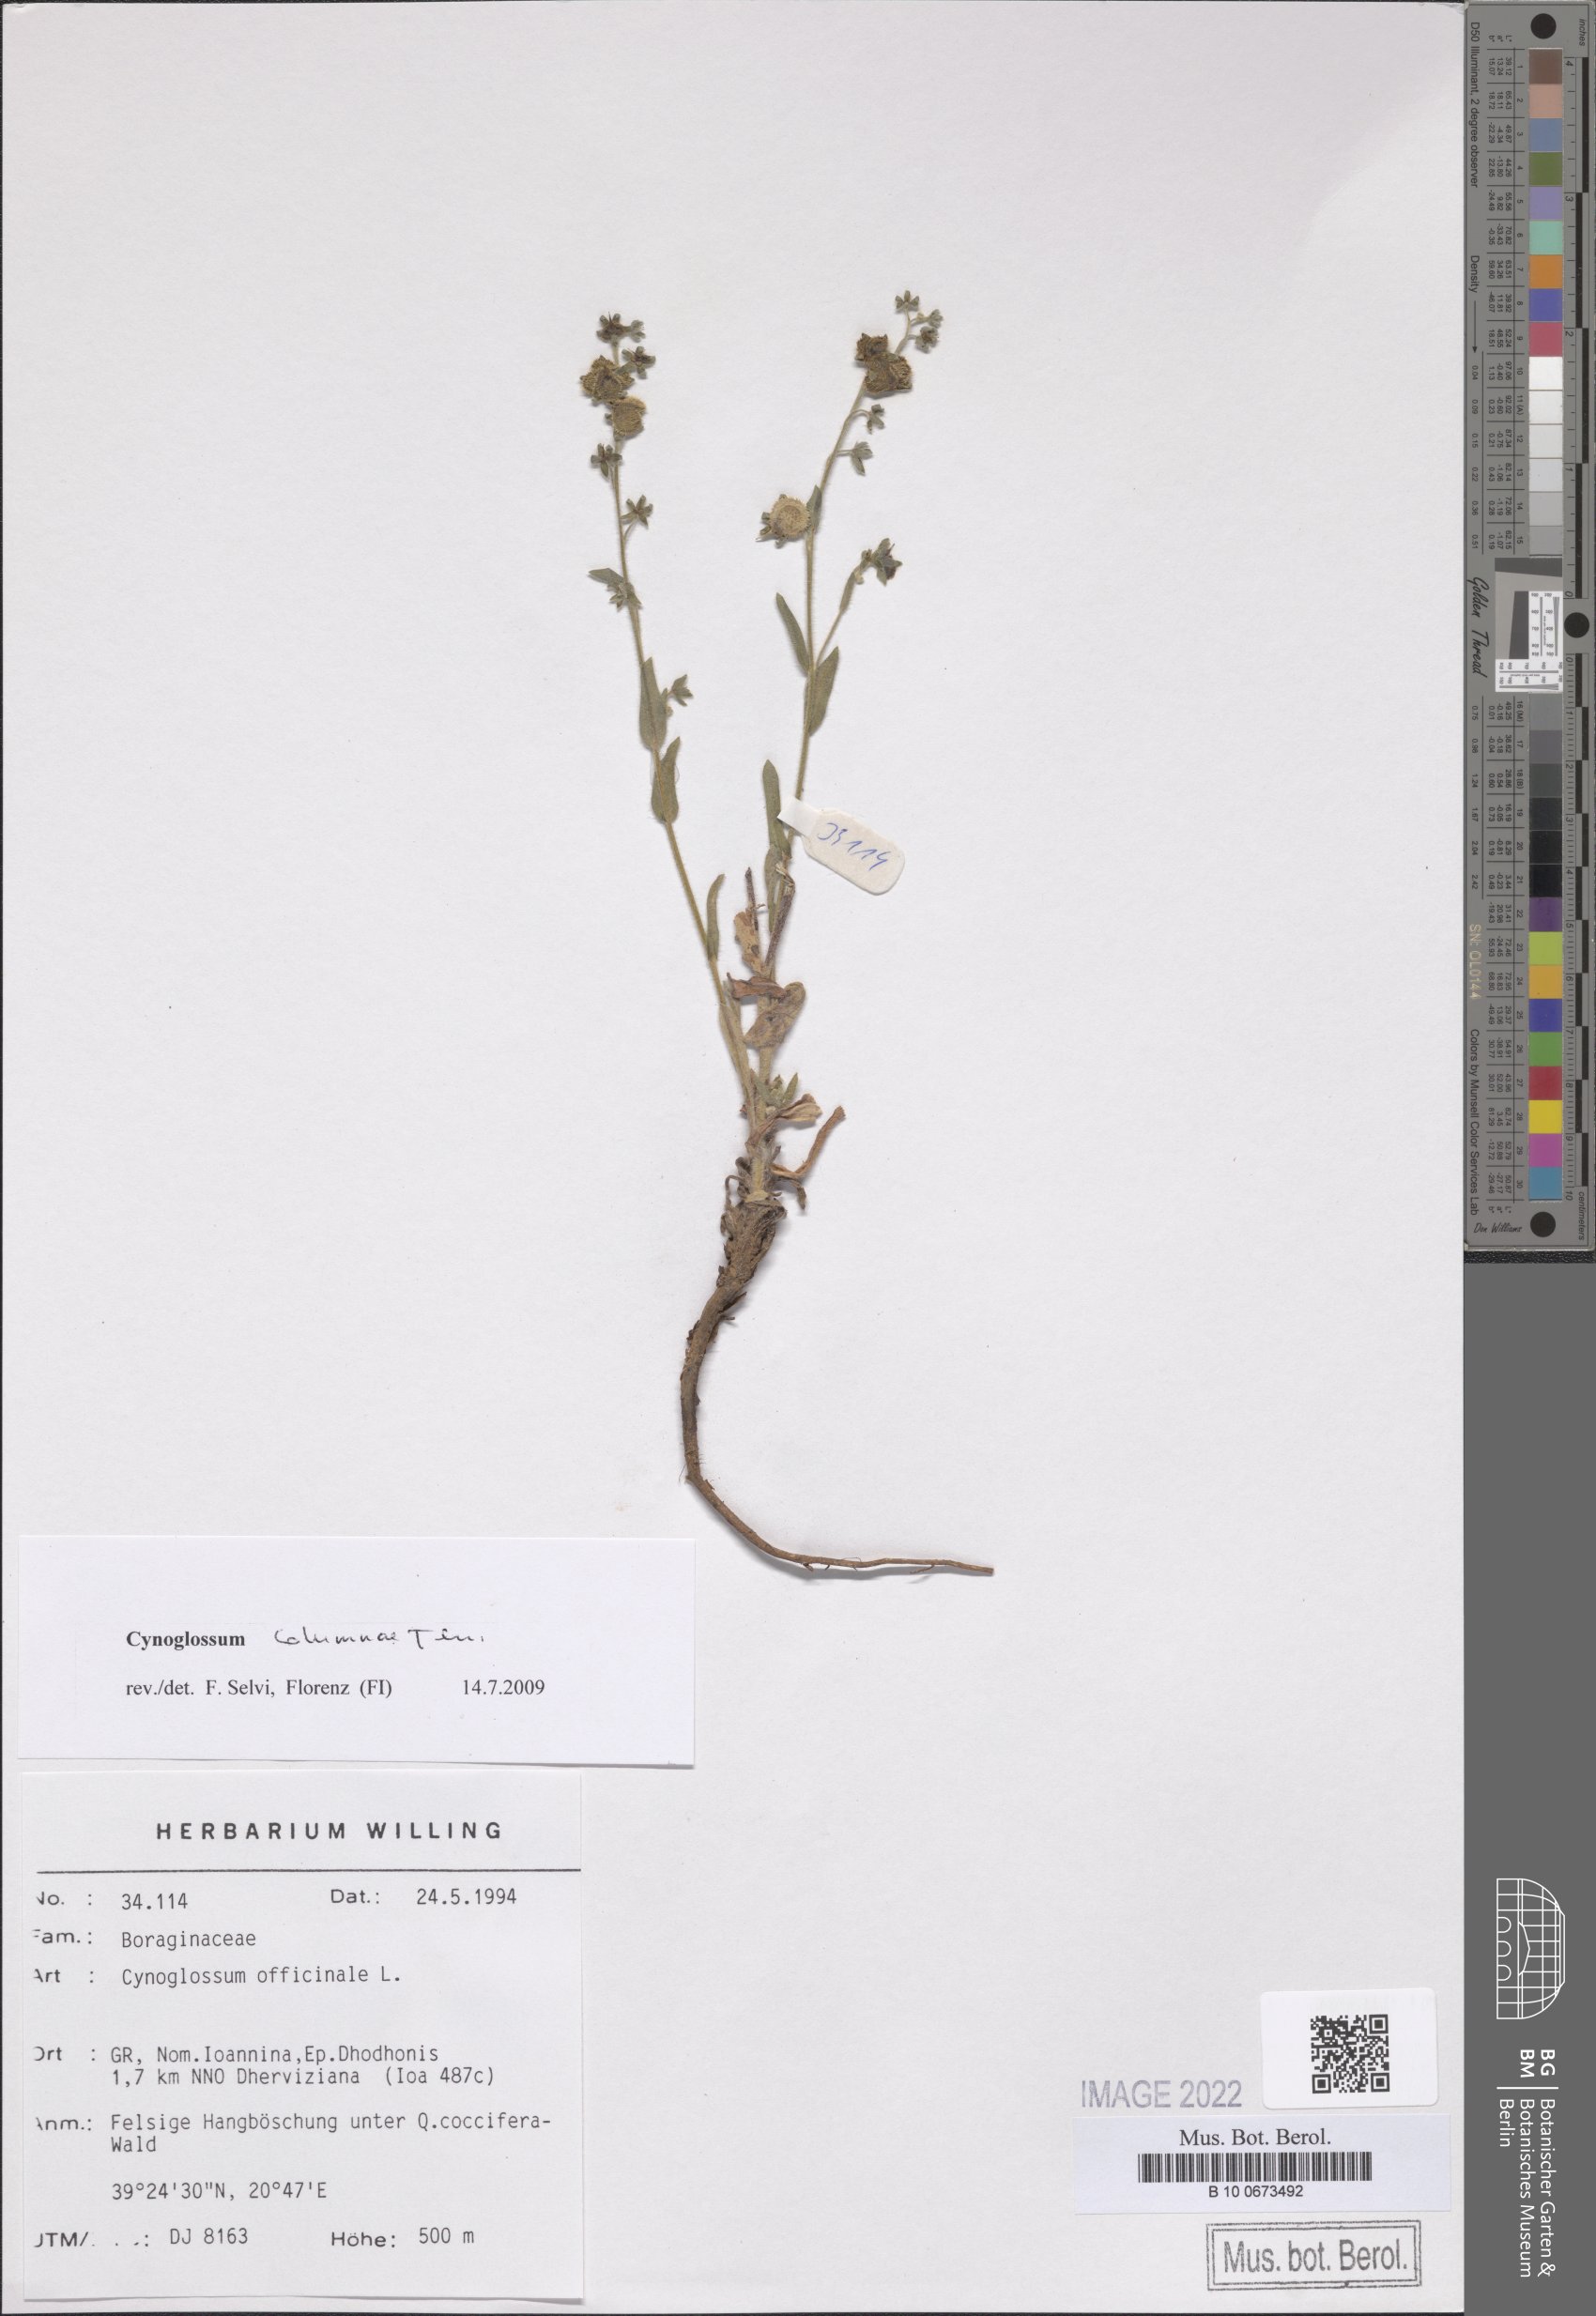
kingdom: Plantae
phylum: Tracheophyta
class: Magnoliopsida
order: Boraginales
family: Boraginaceae
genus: Rindera
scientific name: Rindera columnae
